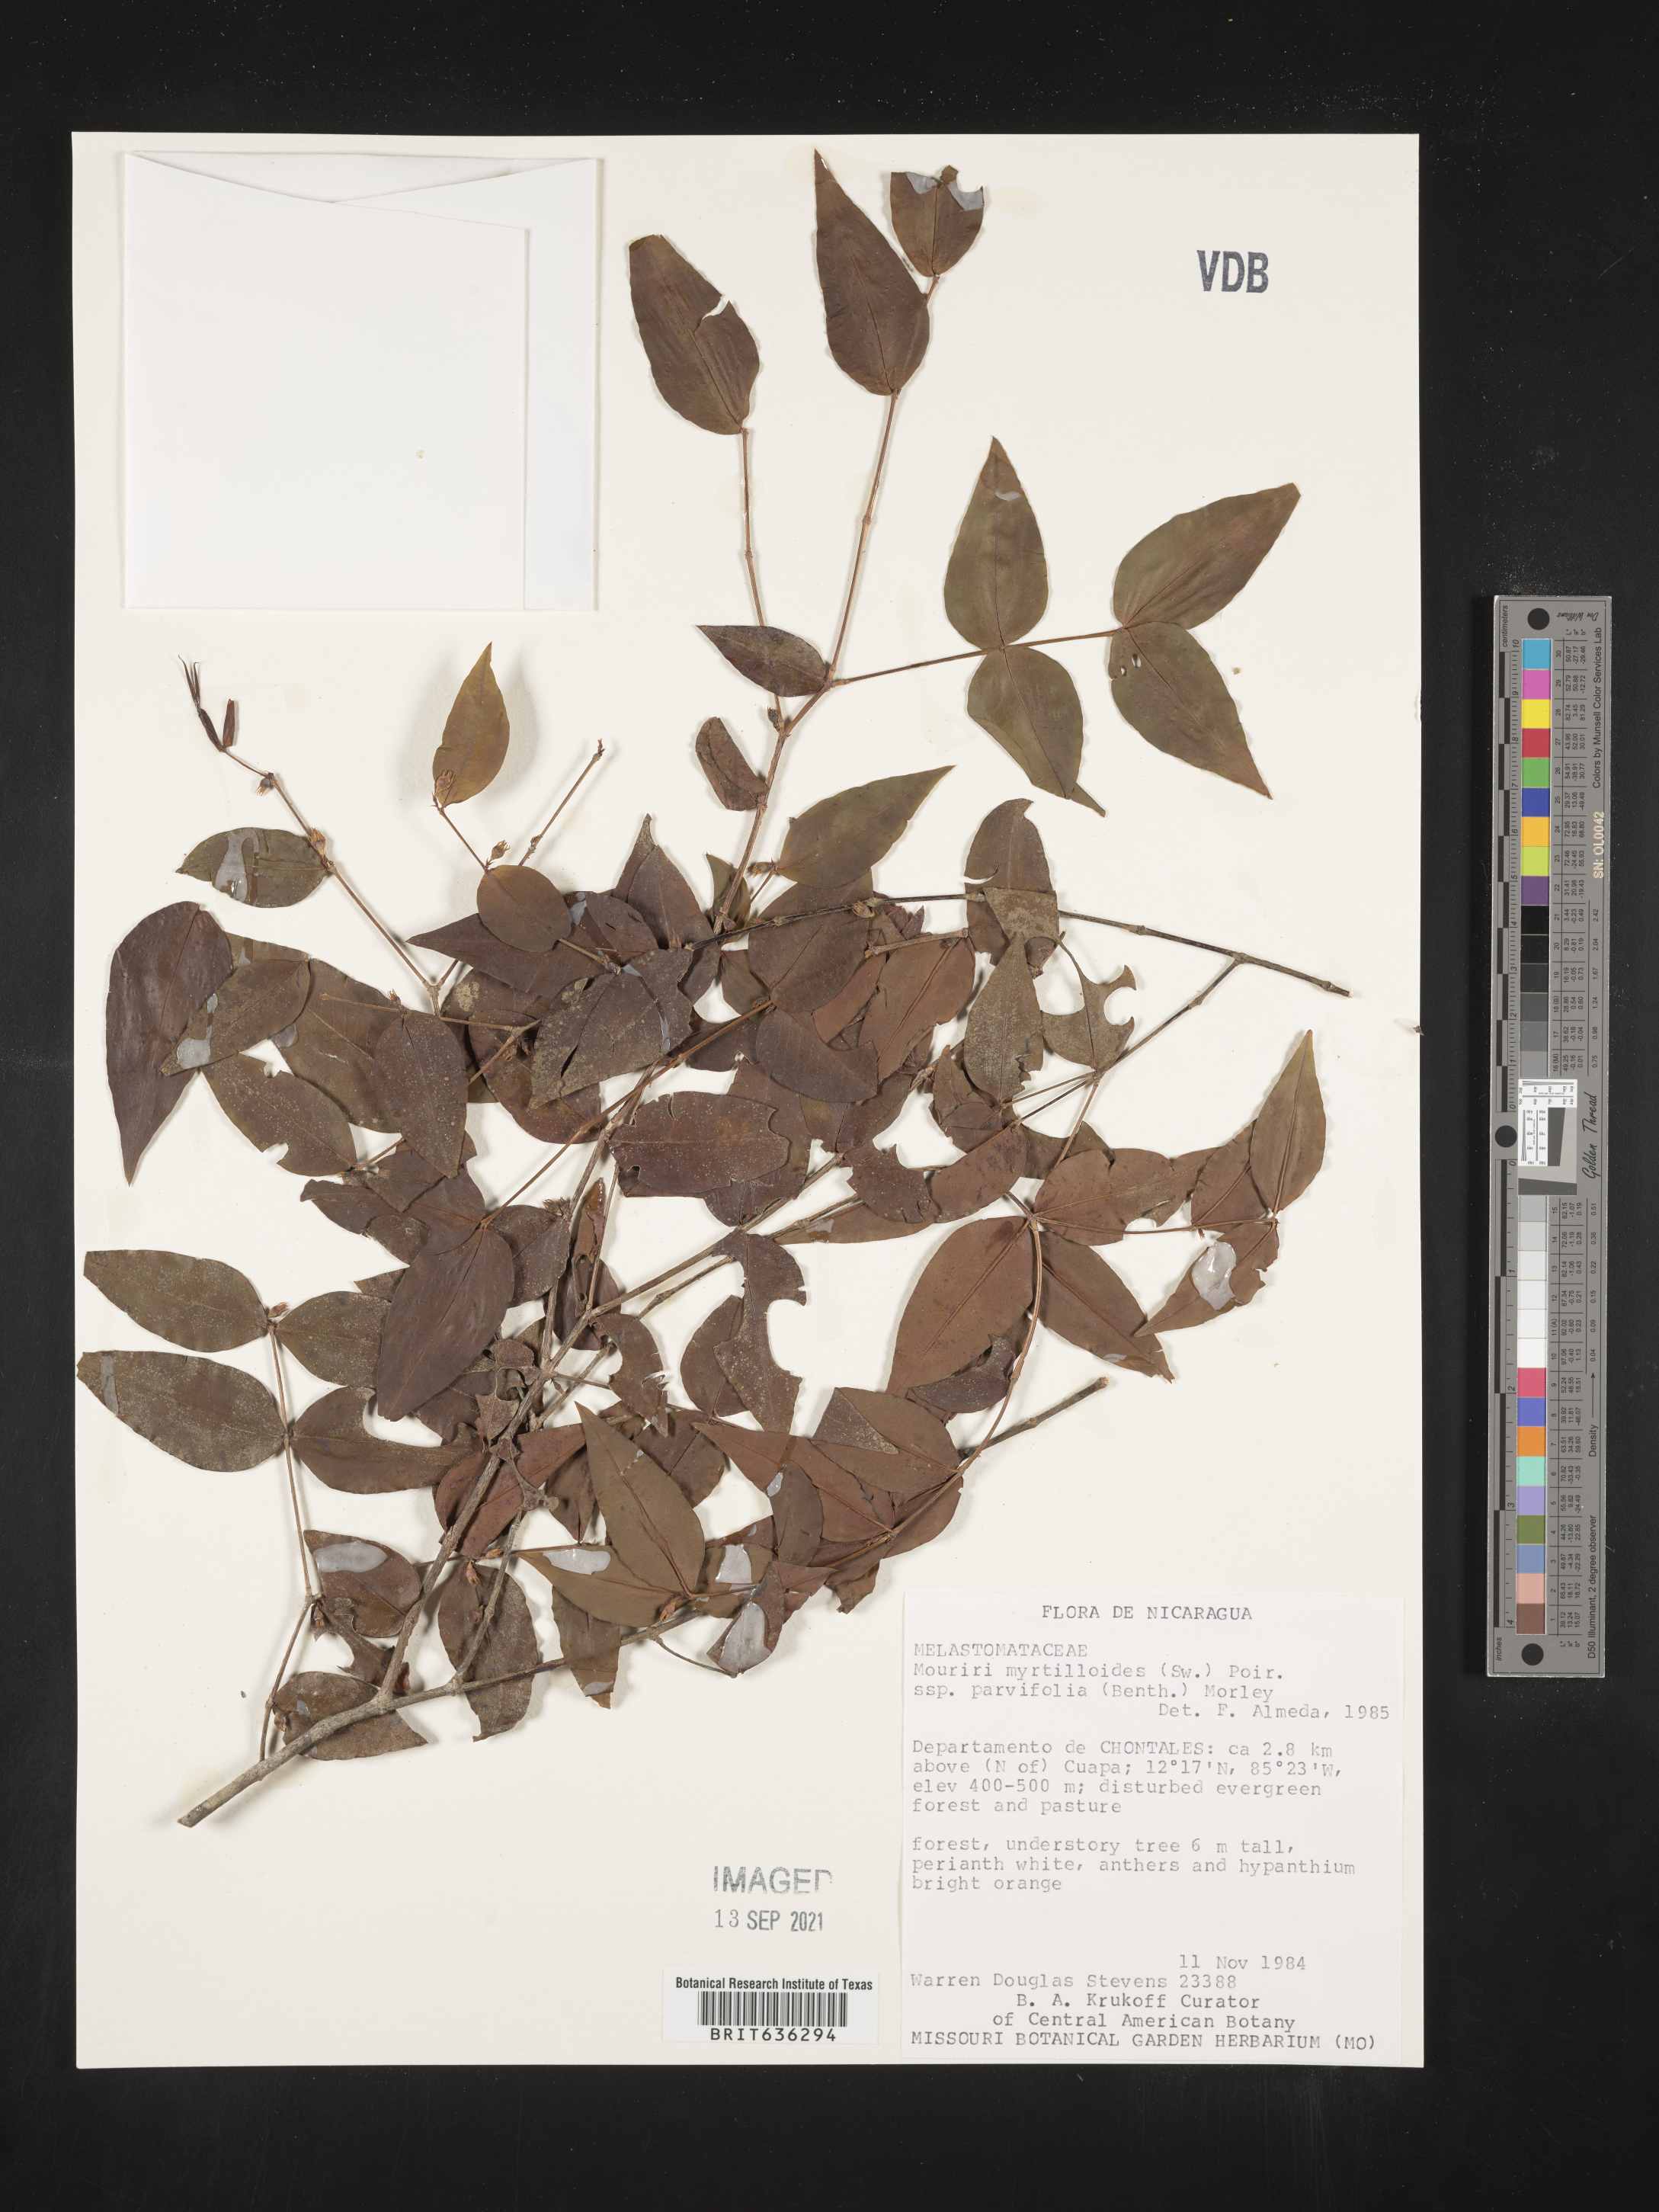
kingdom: Plantae
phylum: Tracheophyta
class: Magnoliopsida
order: Myrtales
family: Melastomataceae
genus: Mouriri
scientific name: Mouriri
